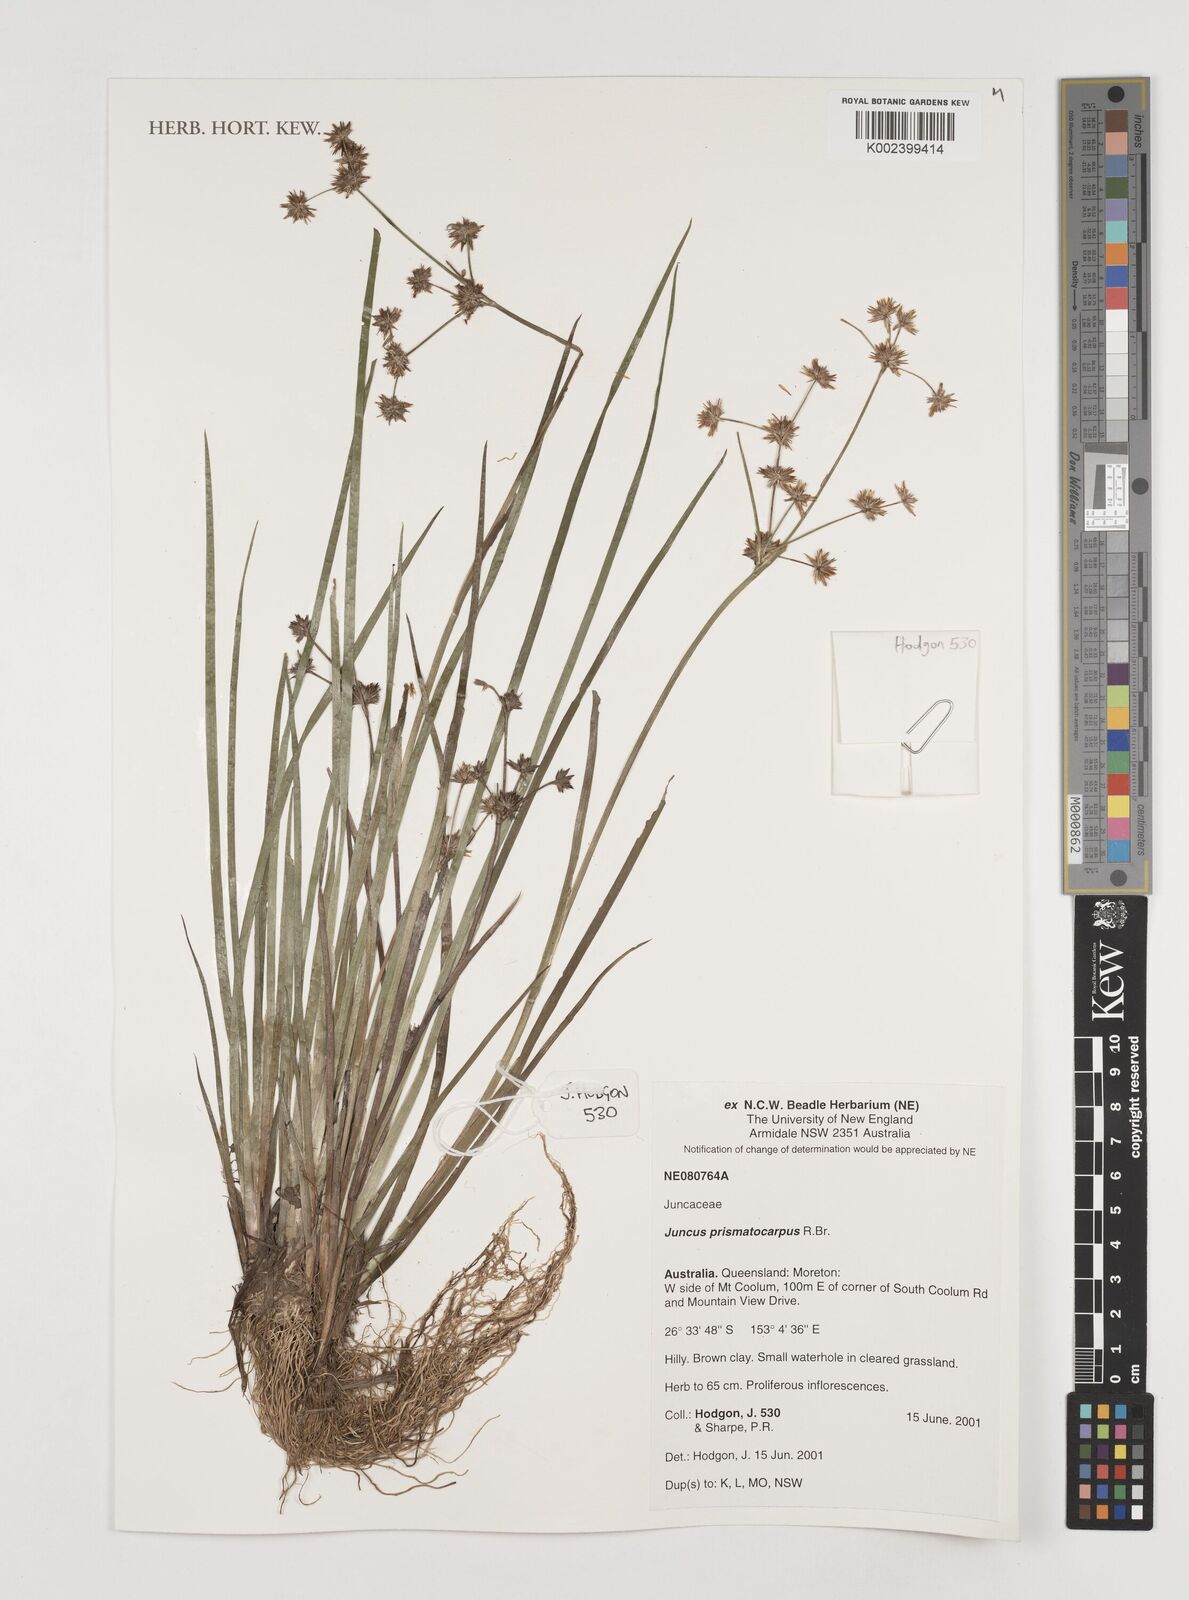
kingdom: Plantae
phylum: Tracheophyta
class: Liliopsida
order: Poales
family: Juncaceae
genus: Juncus
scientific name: Juncus prismatocarpus
